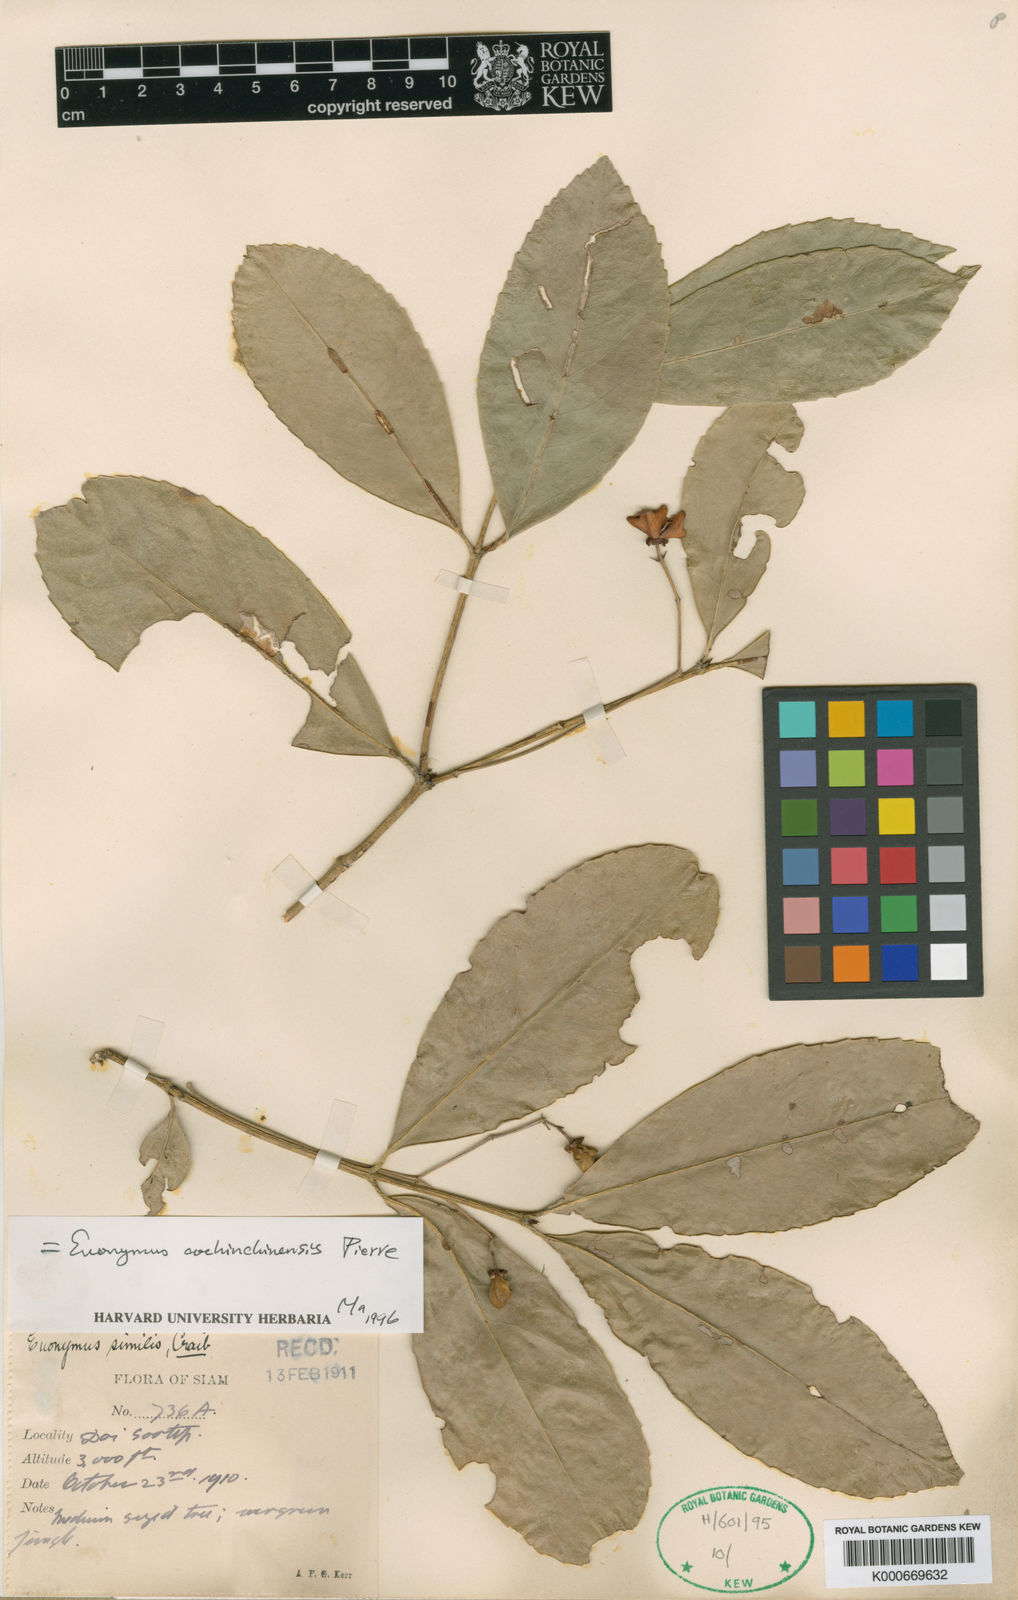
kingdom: Plantae
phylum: Tracheophyta
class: Magnoliopsida
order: Celastrales
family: Celastraceae
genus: Euonymus
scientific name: Euonymus cochinchinensis
